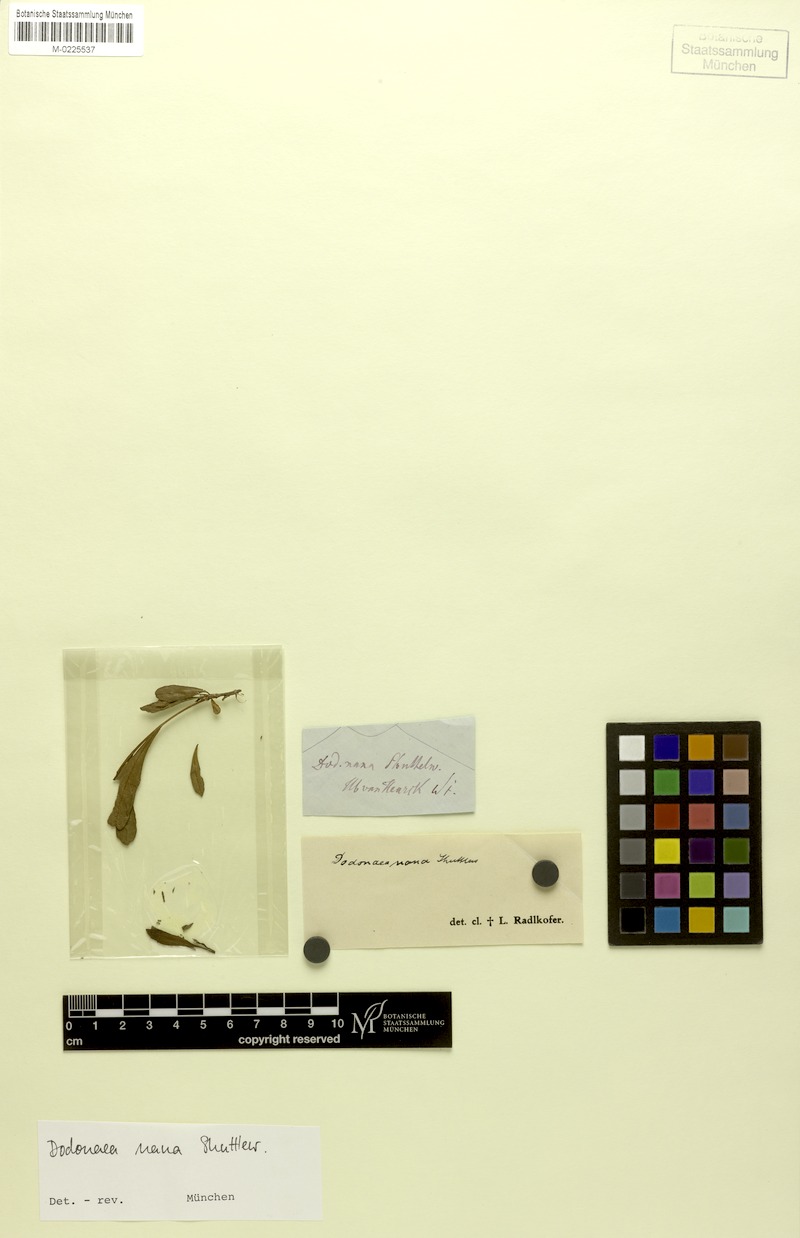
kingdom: Plantae
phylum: Tracheophyta
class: Magnoliopsida
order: Sapindales
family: Sapindaceae
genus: Dodonaea
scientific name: Dodonaea
